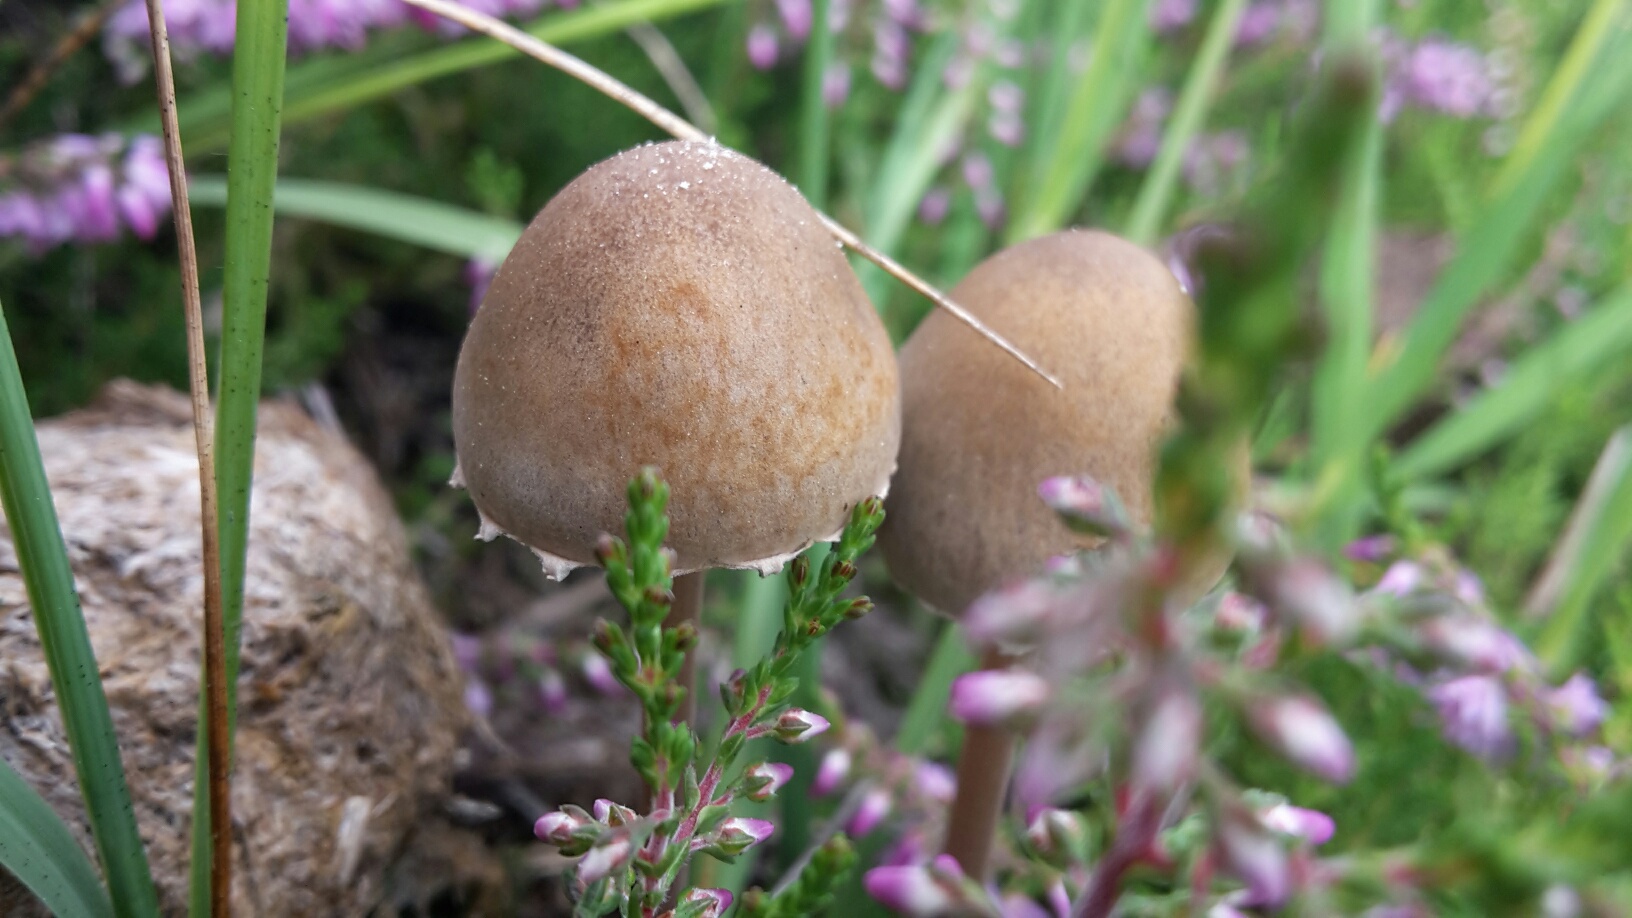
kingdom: Fungi
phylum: Basidiomycota
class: Agaricomycetes
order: Agaricales
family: Bolbitiaceae
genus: Panaeolus
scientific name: Panaeolus papilionaceus
